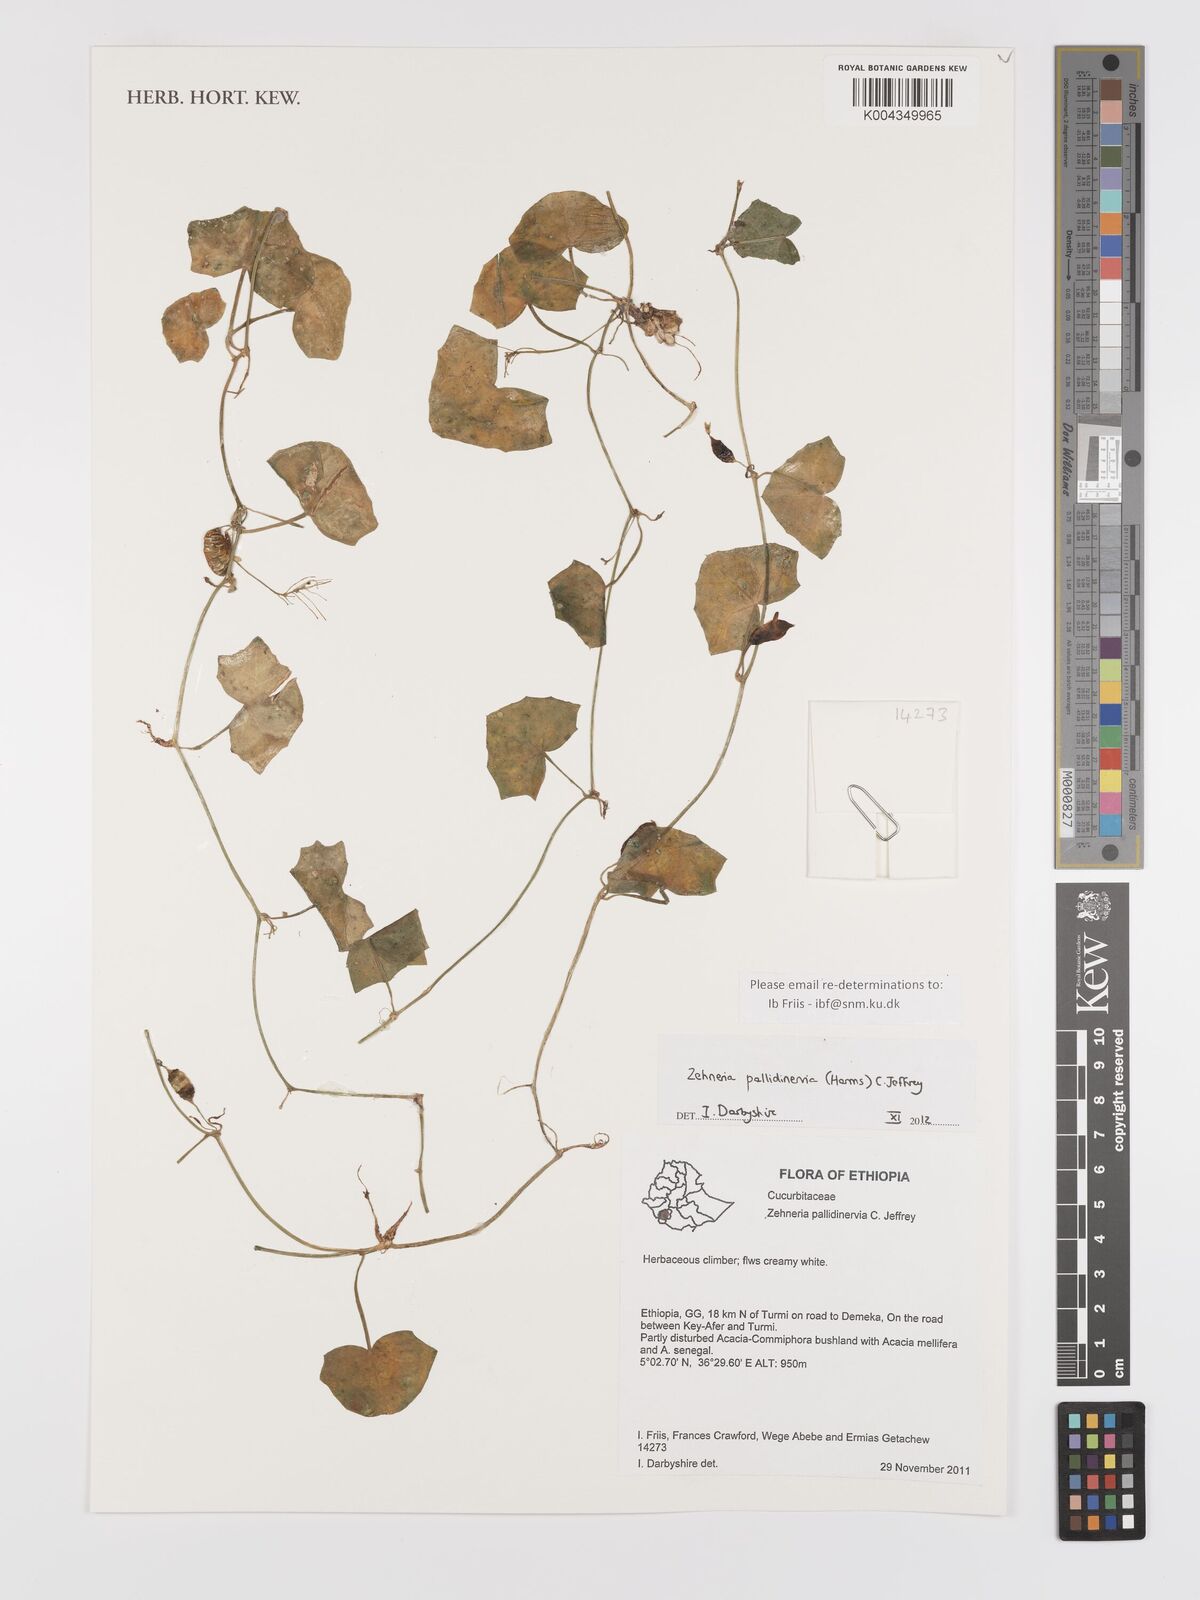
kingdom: Plantae
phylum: Tracheophyta
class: Magnoliopsida
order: Cucurbitales
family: Cucurbitaceae
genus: Zehneria
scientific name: Zehneria pallidinervia
